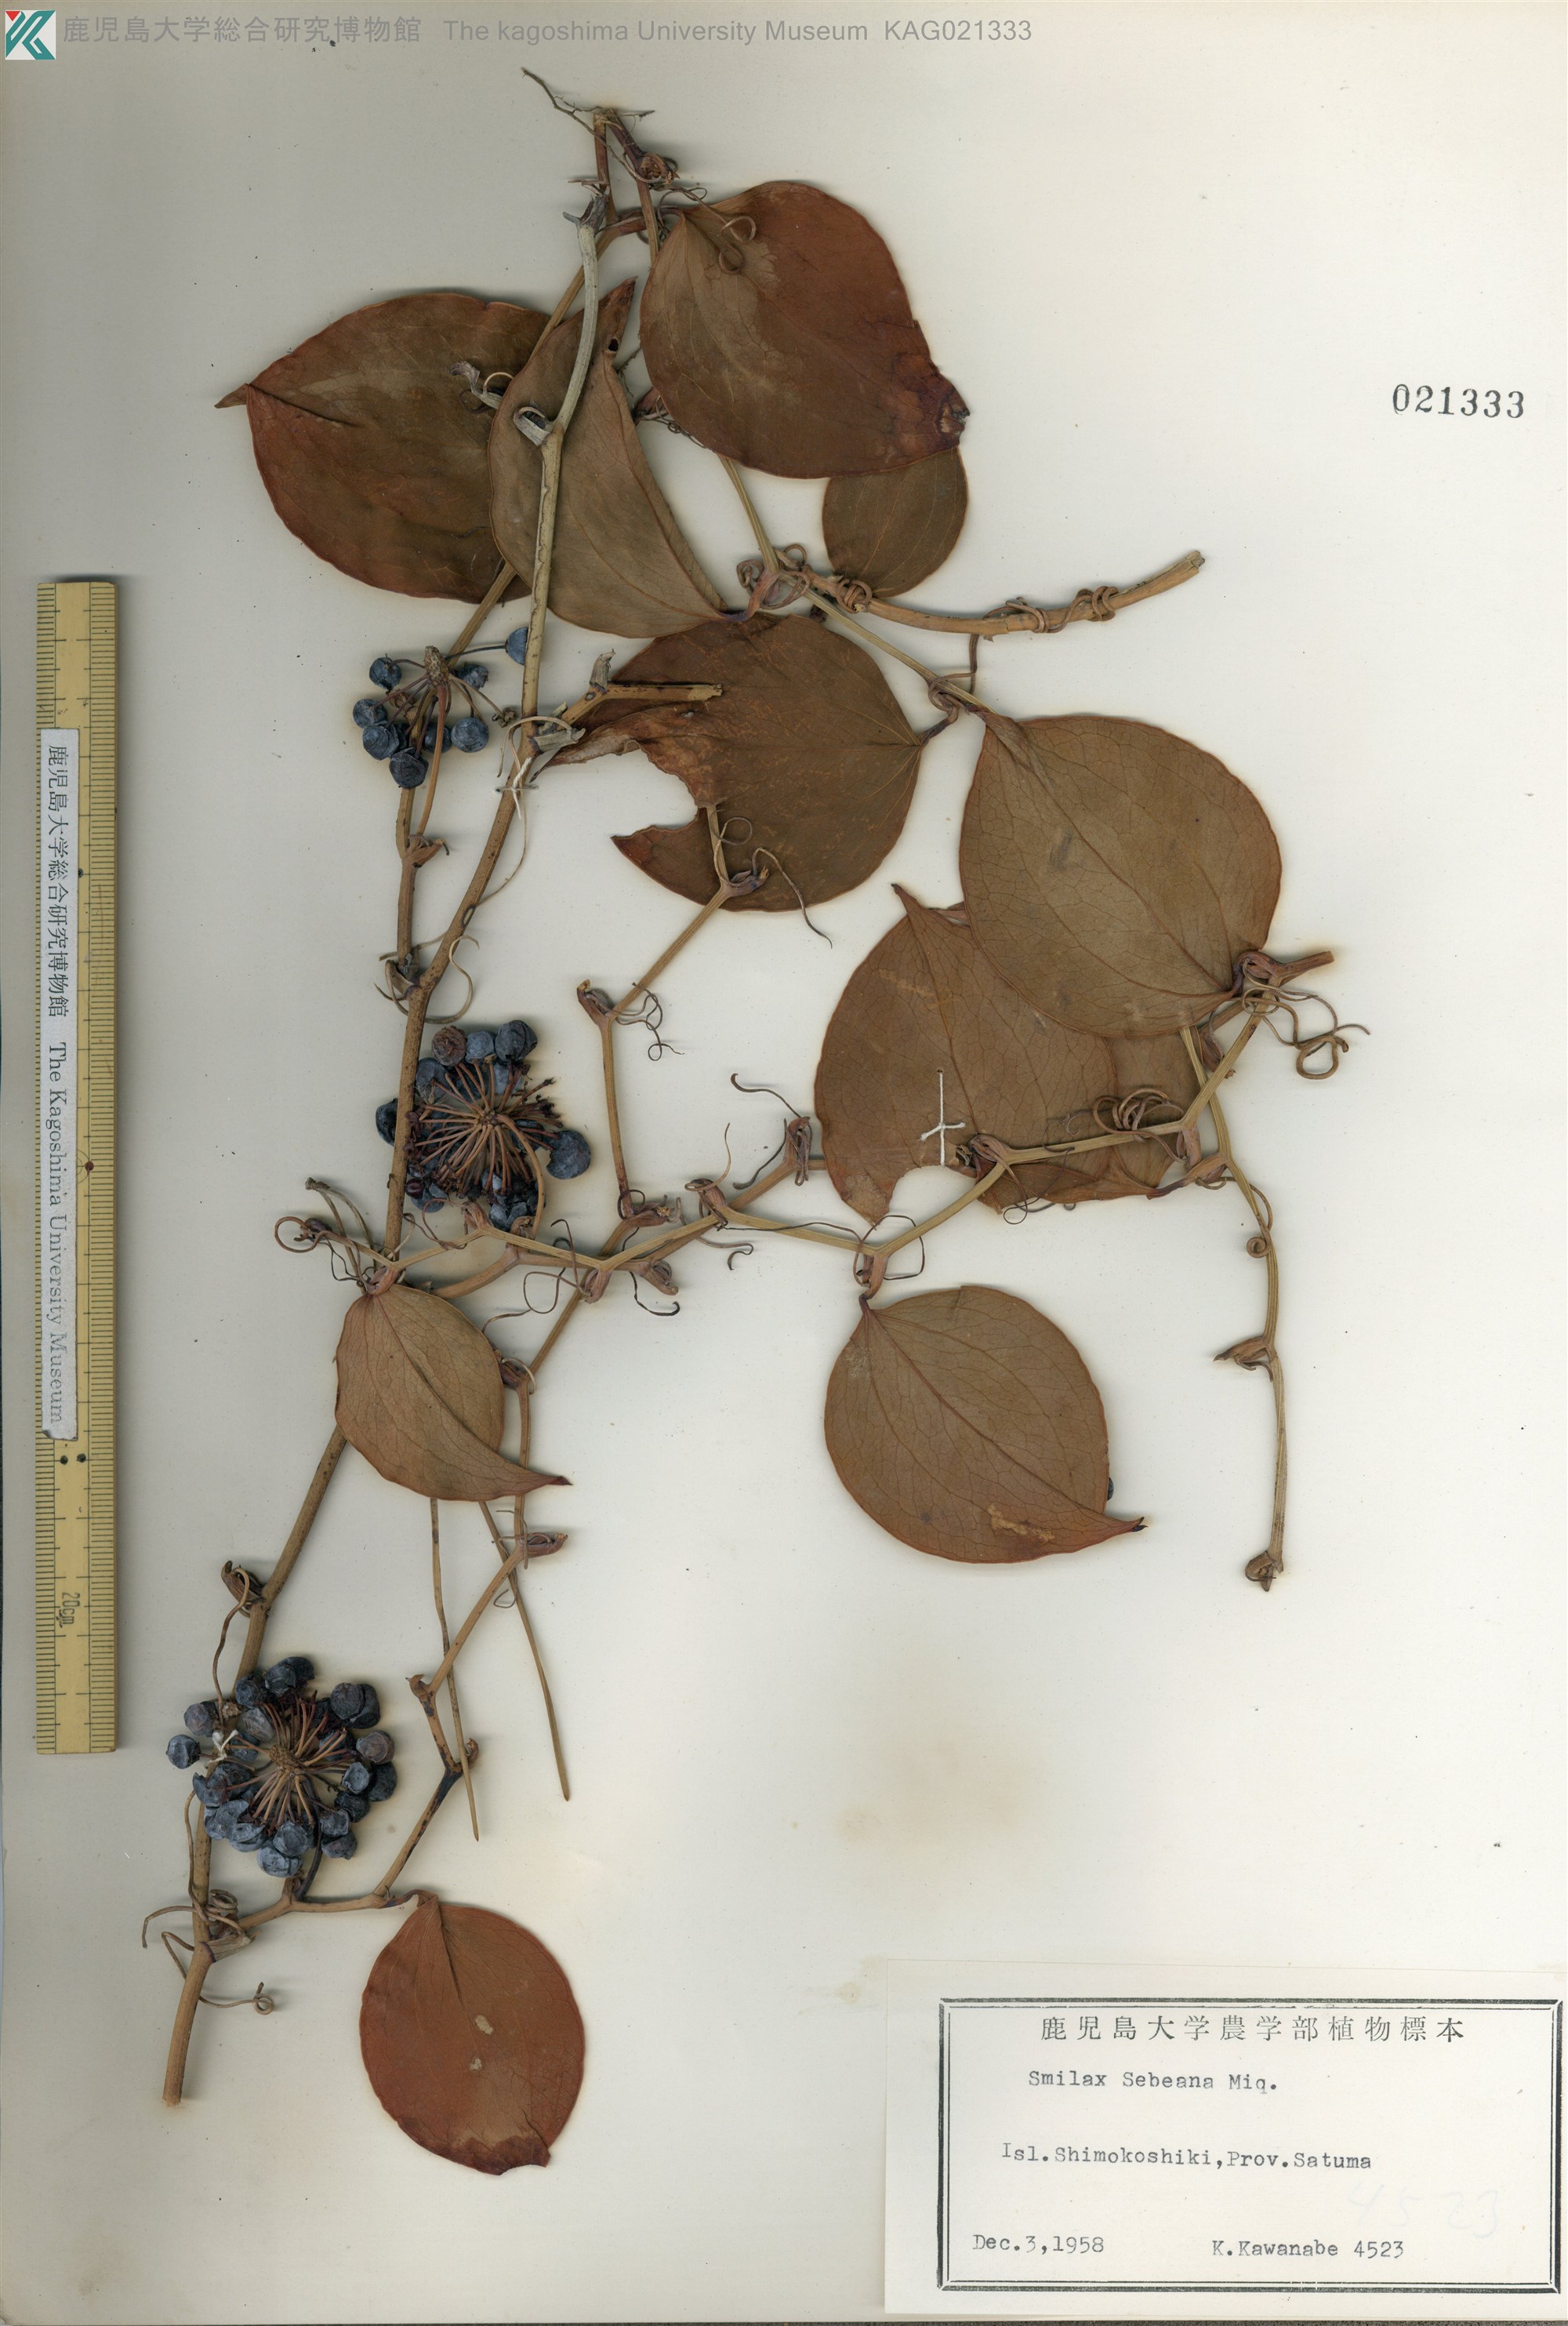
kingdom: Plantae
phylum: Tracheophyta
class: Liliopsida
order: Liliales
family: Smilacaceae
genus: Smilax
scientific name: Smilax sebeana
